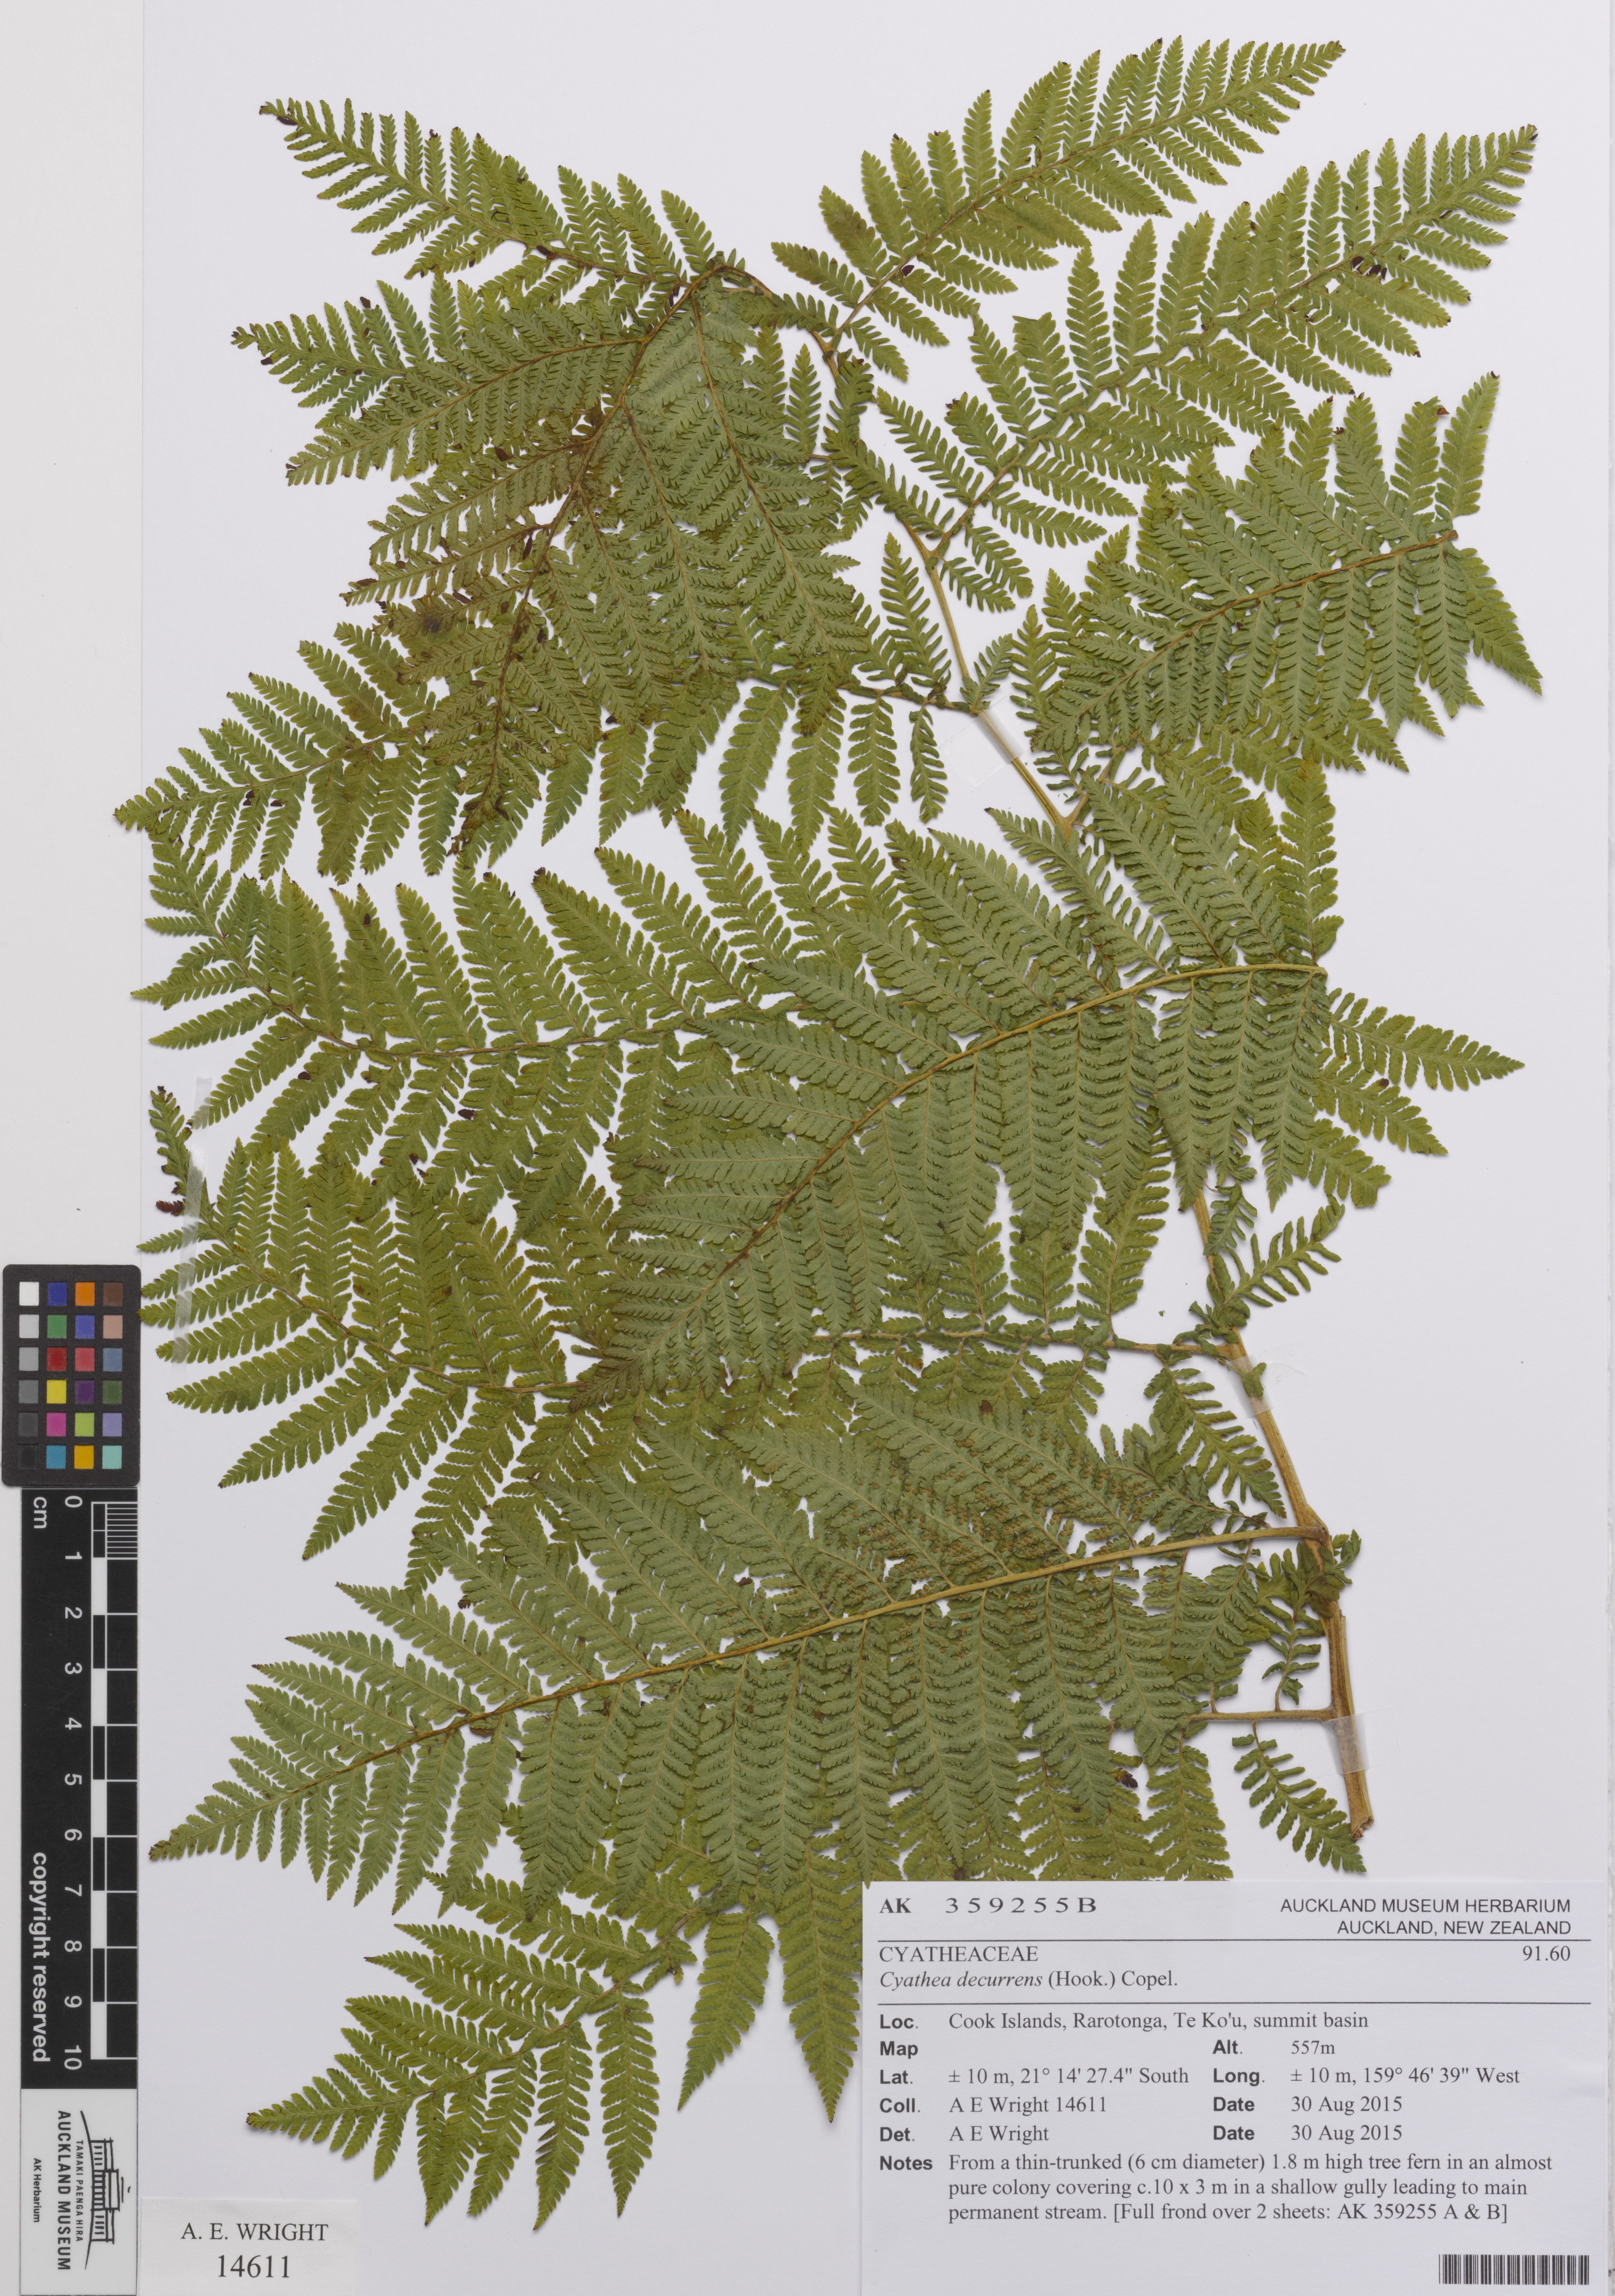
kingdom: Plantae
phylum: Tracheophyta
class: Polypodiopsida
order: Cyatheales
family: Cyatheaceae
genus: Cyathea
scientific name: Cyathea decurrens
